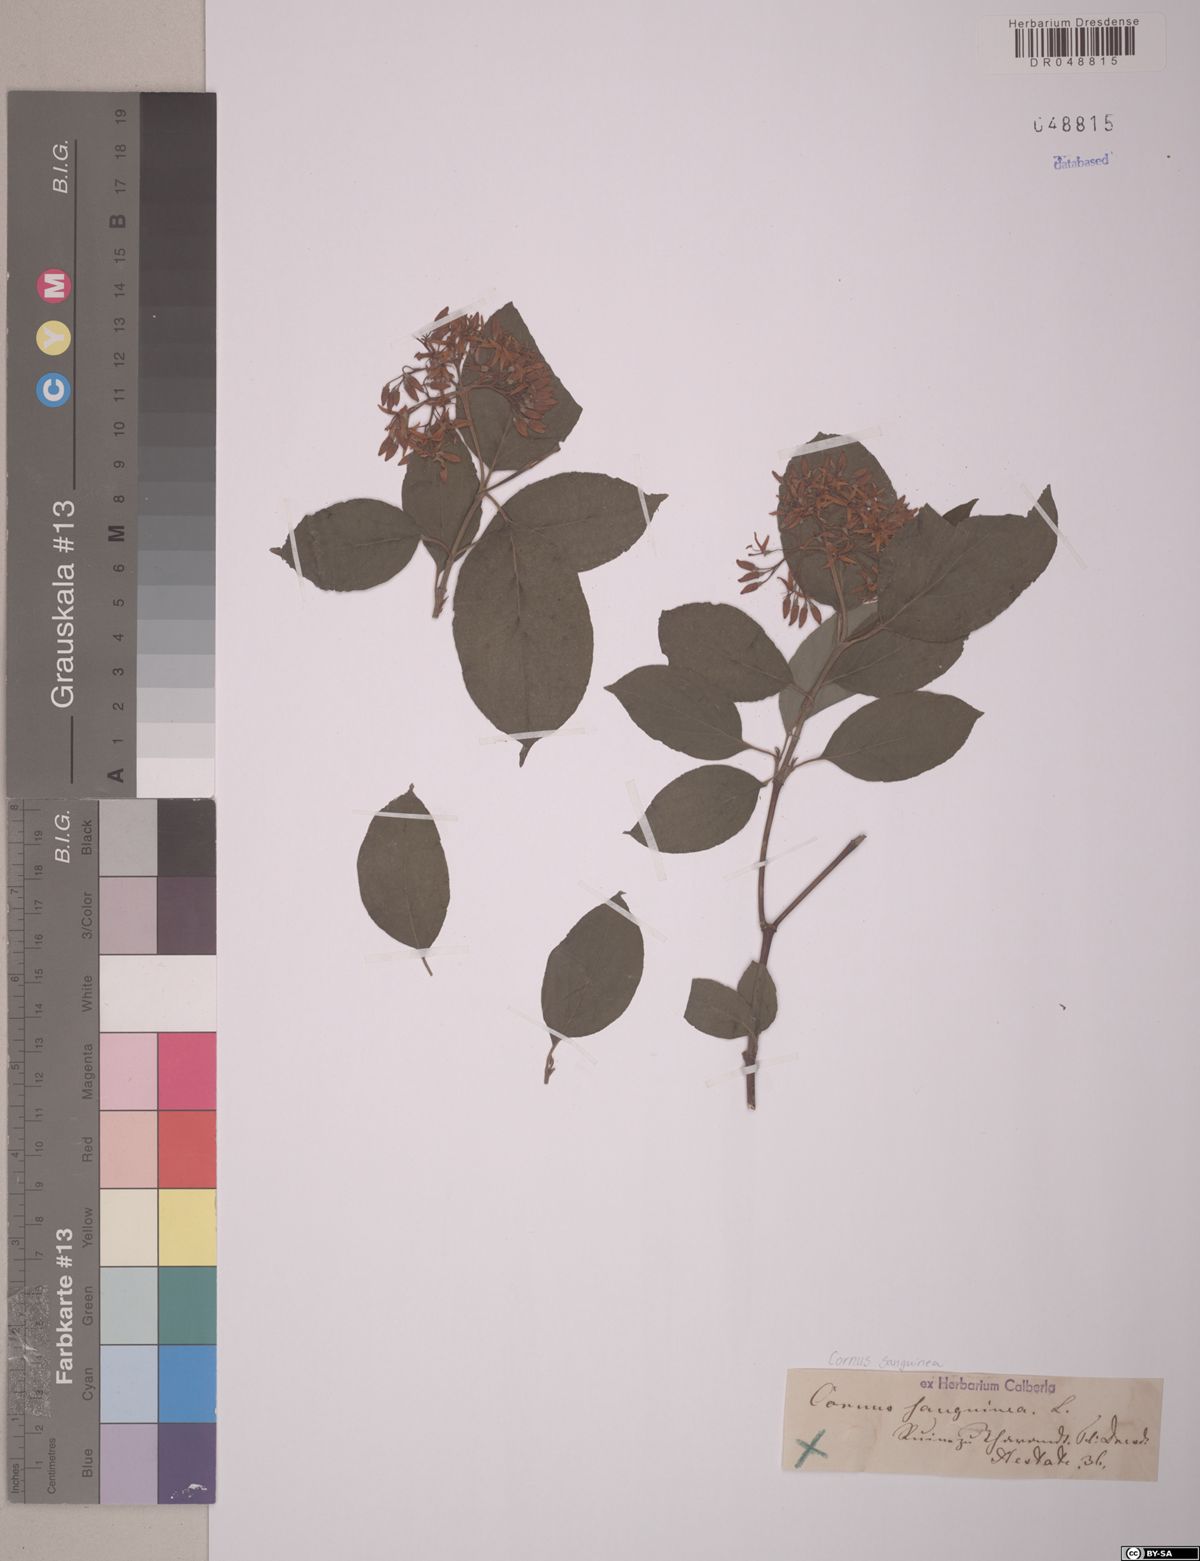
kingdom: Plantae
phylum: Tracheophyta
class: Magnoliopsida
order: Cornales
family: Cornaceae
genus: Cornus
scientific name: Cornus sanguinea
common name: Dogwood
